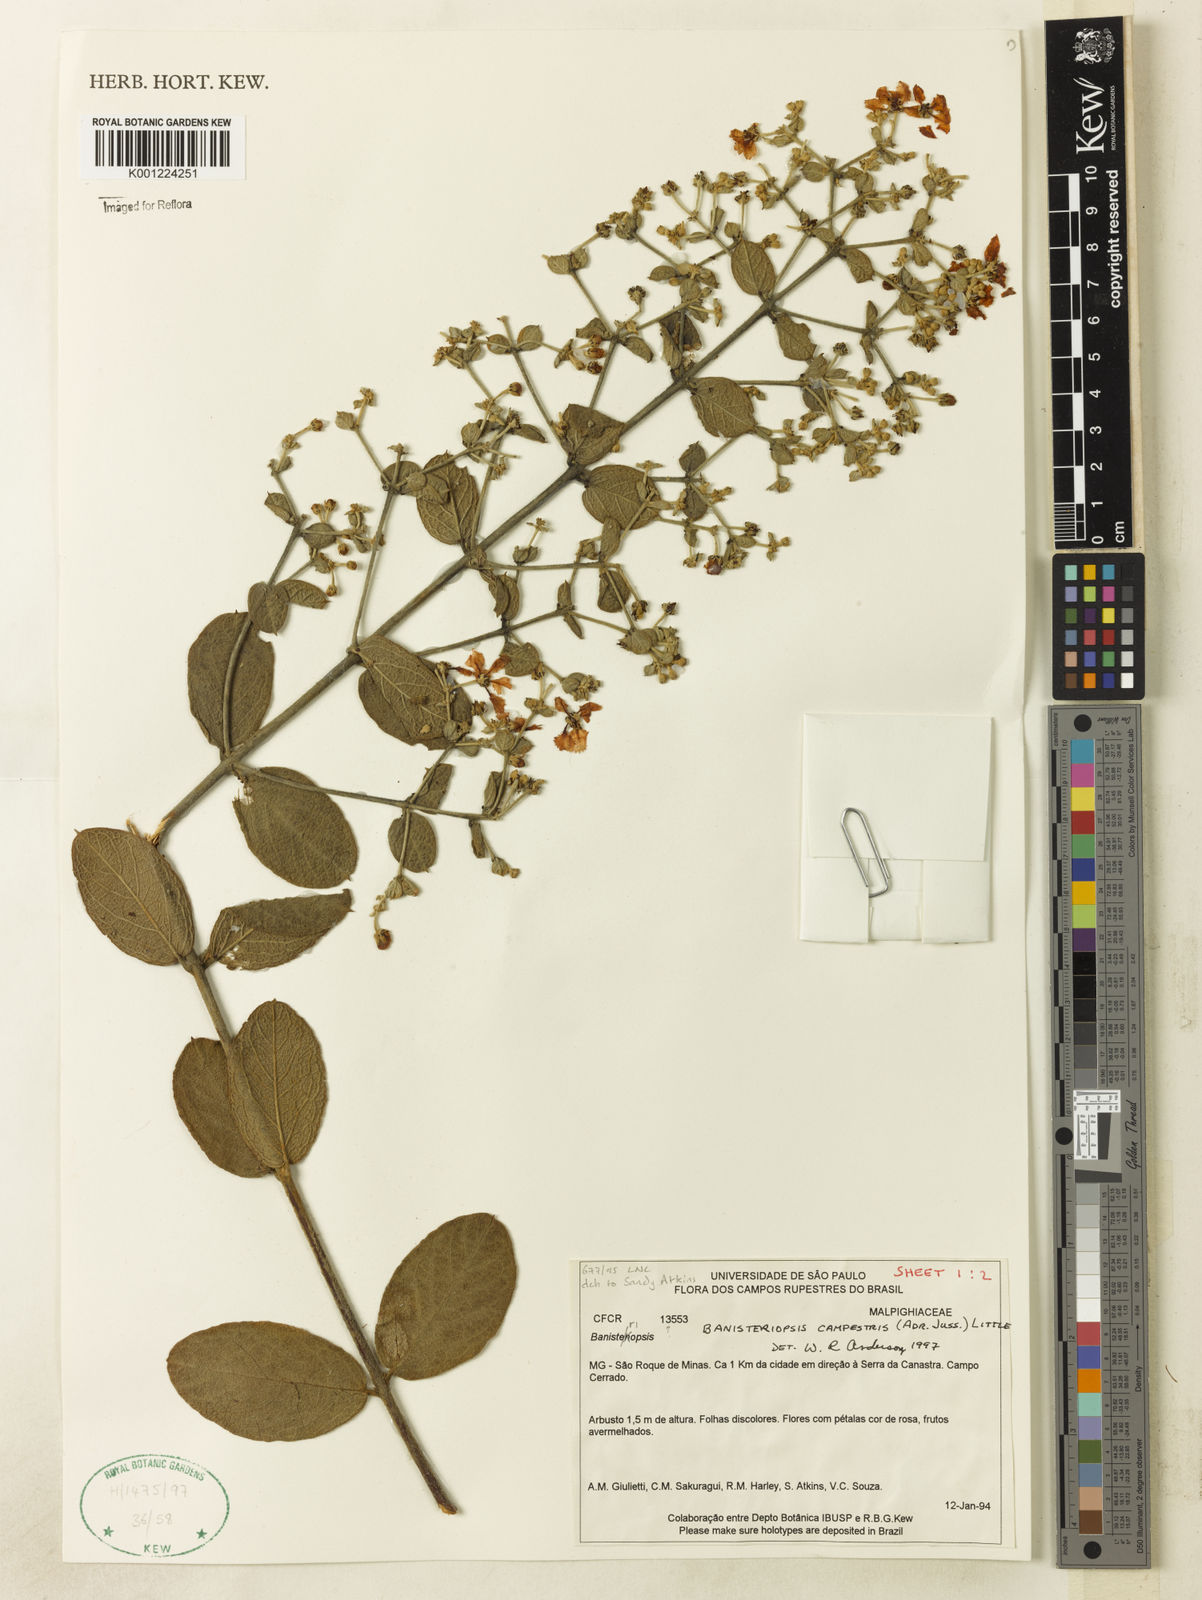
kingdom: Plantae
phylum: Tracheophyta
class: Magnoliopsida
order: Malpighiales
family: Malpighiaceae
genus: Banisteriopsis
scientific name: Banisteriopsis campestris
